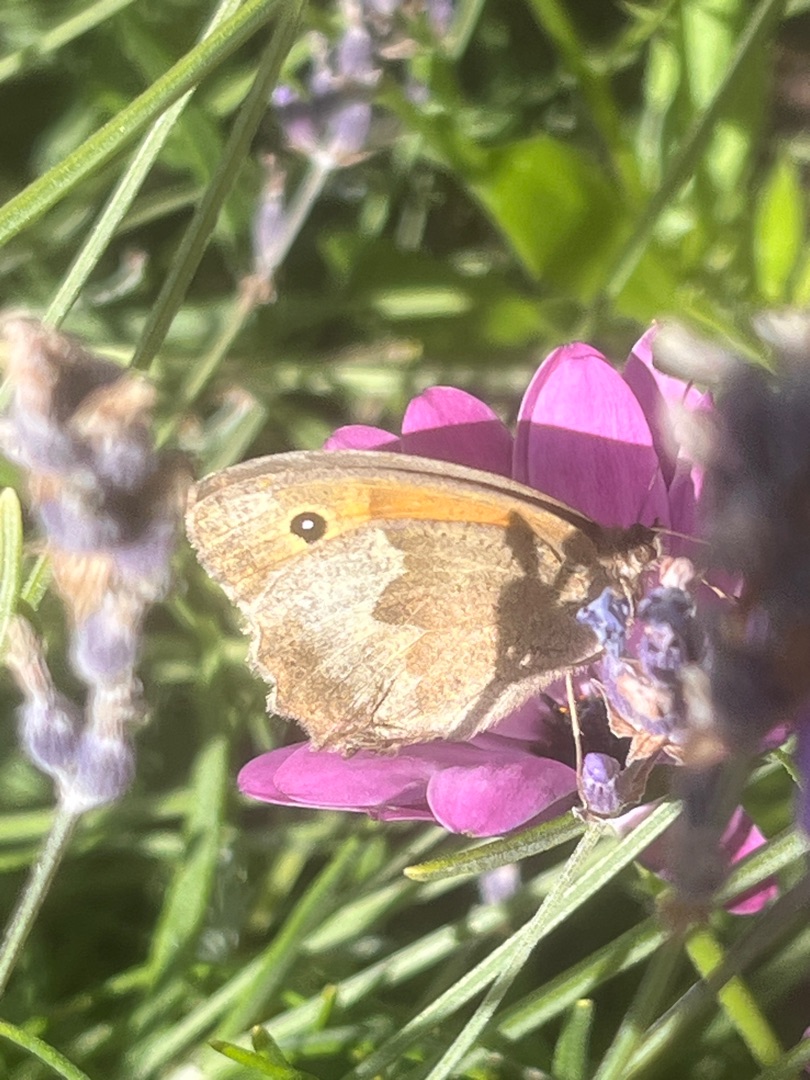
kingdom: Animalia
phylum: Arthropoda
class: Insecta
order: Lepidoptera
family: Nymphalidae
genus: Maniola
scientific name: Maniola jurtina
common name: Græsrandøje
